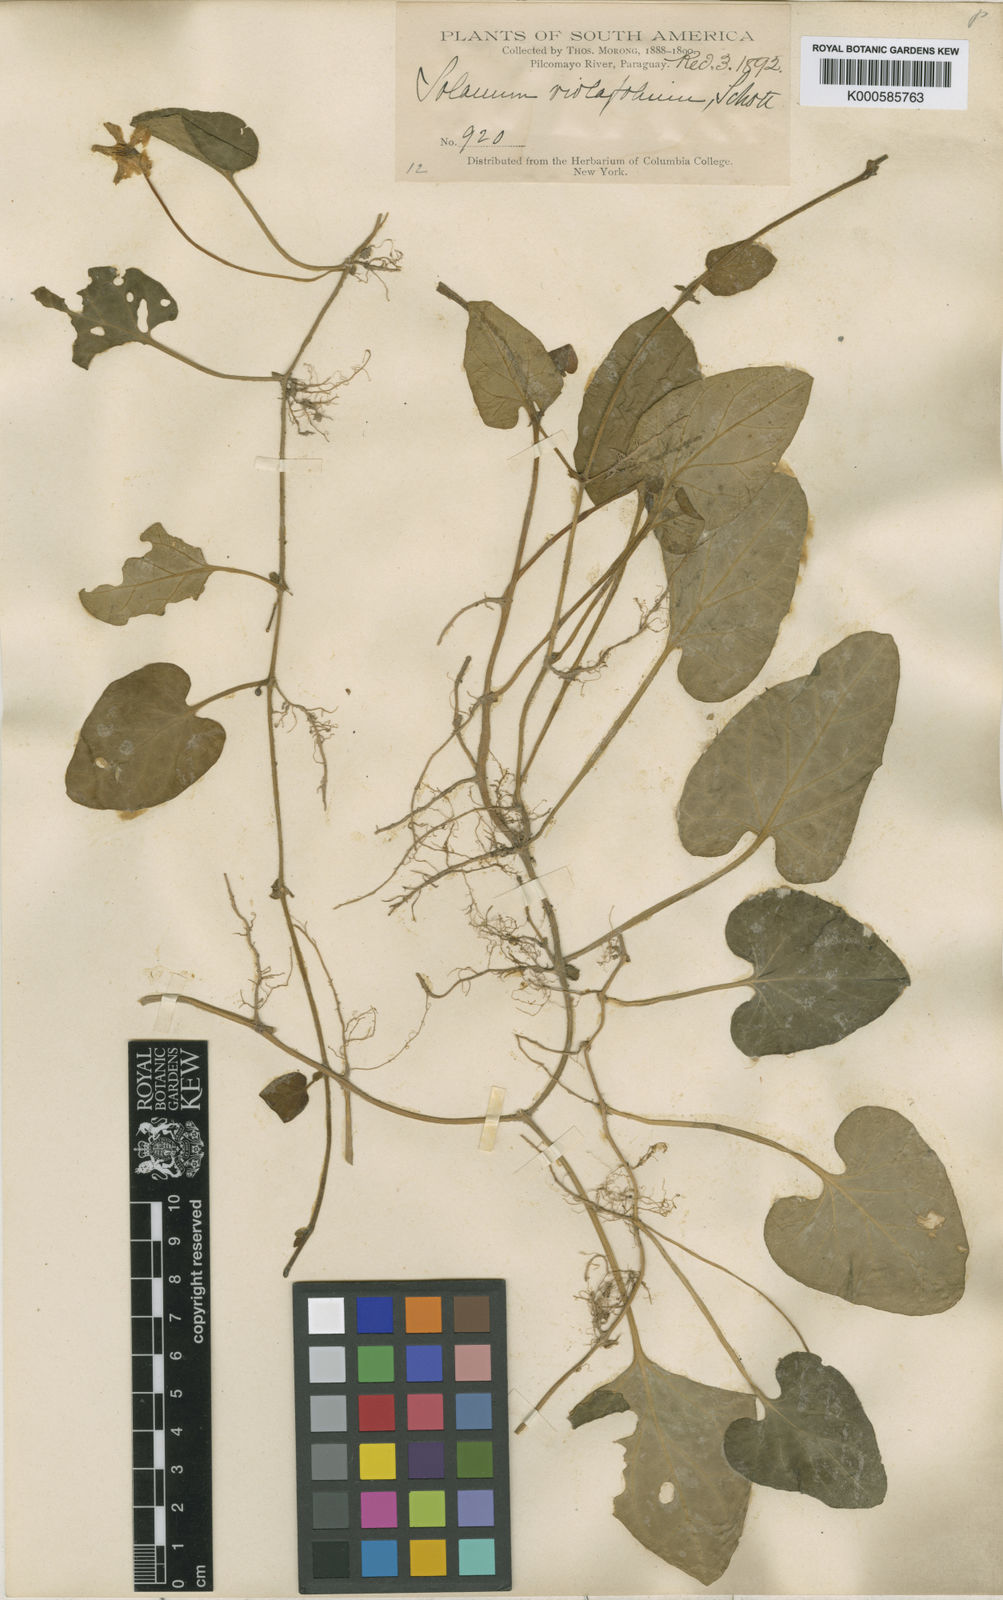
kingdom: Plantae
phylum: Tracheophyta
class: Magnoliopsida
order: Solanales
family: Solanaceae
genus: Lycianthes
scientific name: Lycianthes
